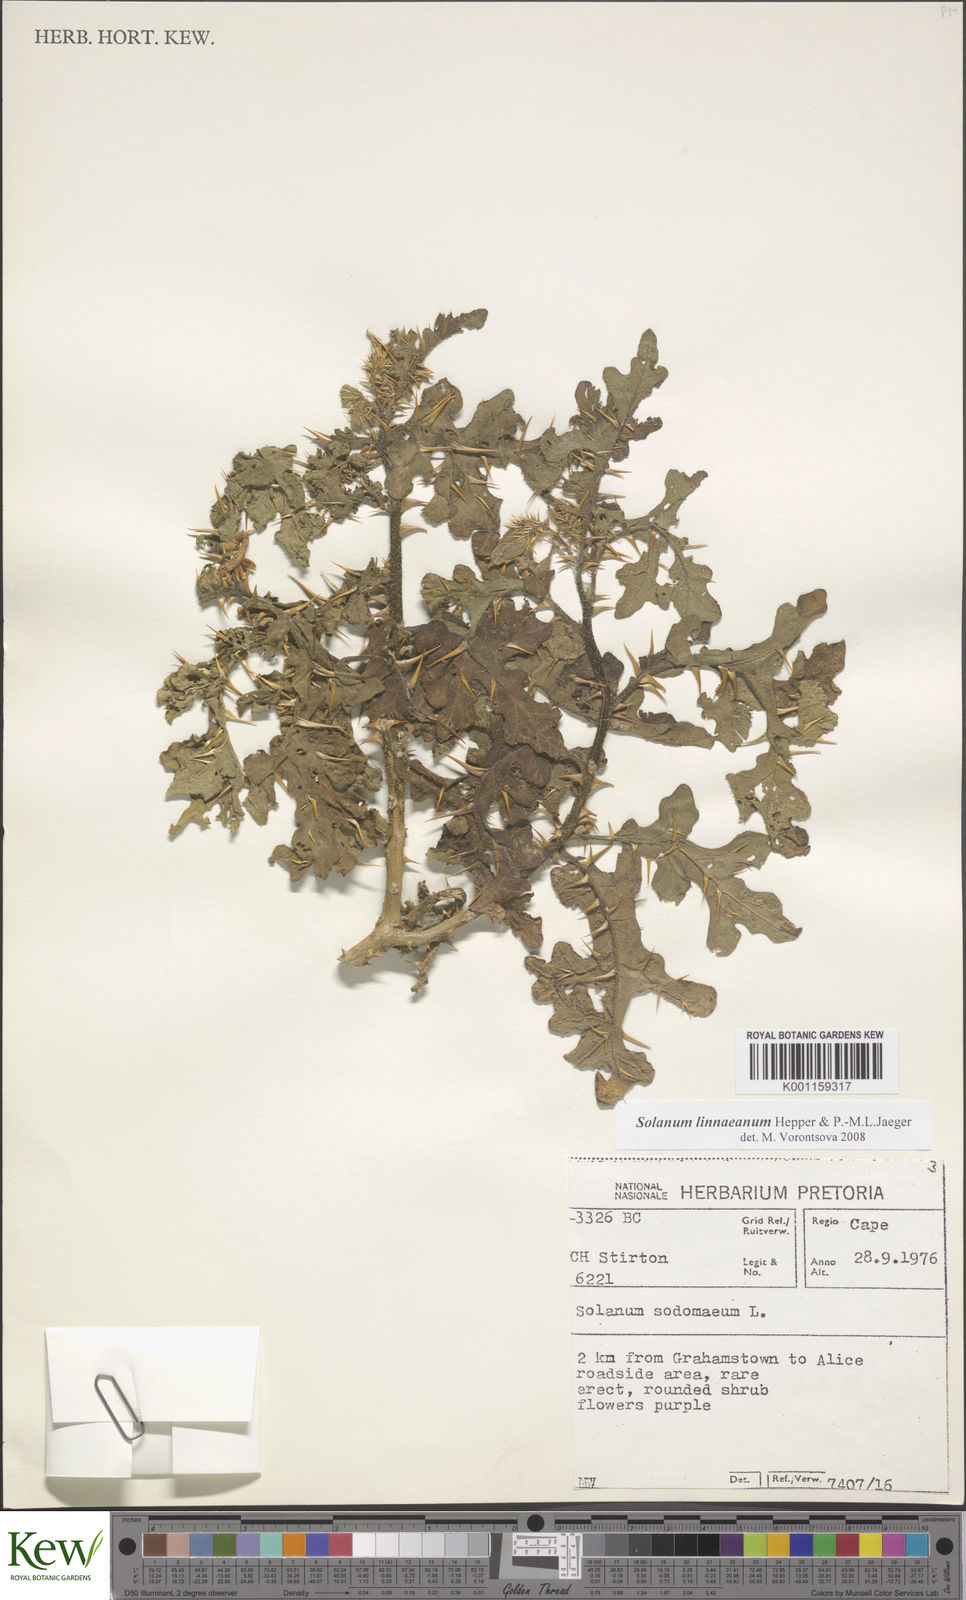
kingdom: Plantae
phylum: Tracheophyta
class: Magnoliopsida
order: Solanales
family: Solanaceae
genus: Solanum
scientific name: Solanum linnaeanum
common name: Nightshade
